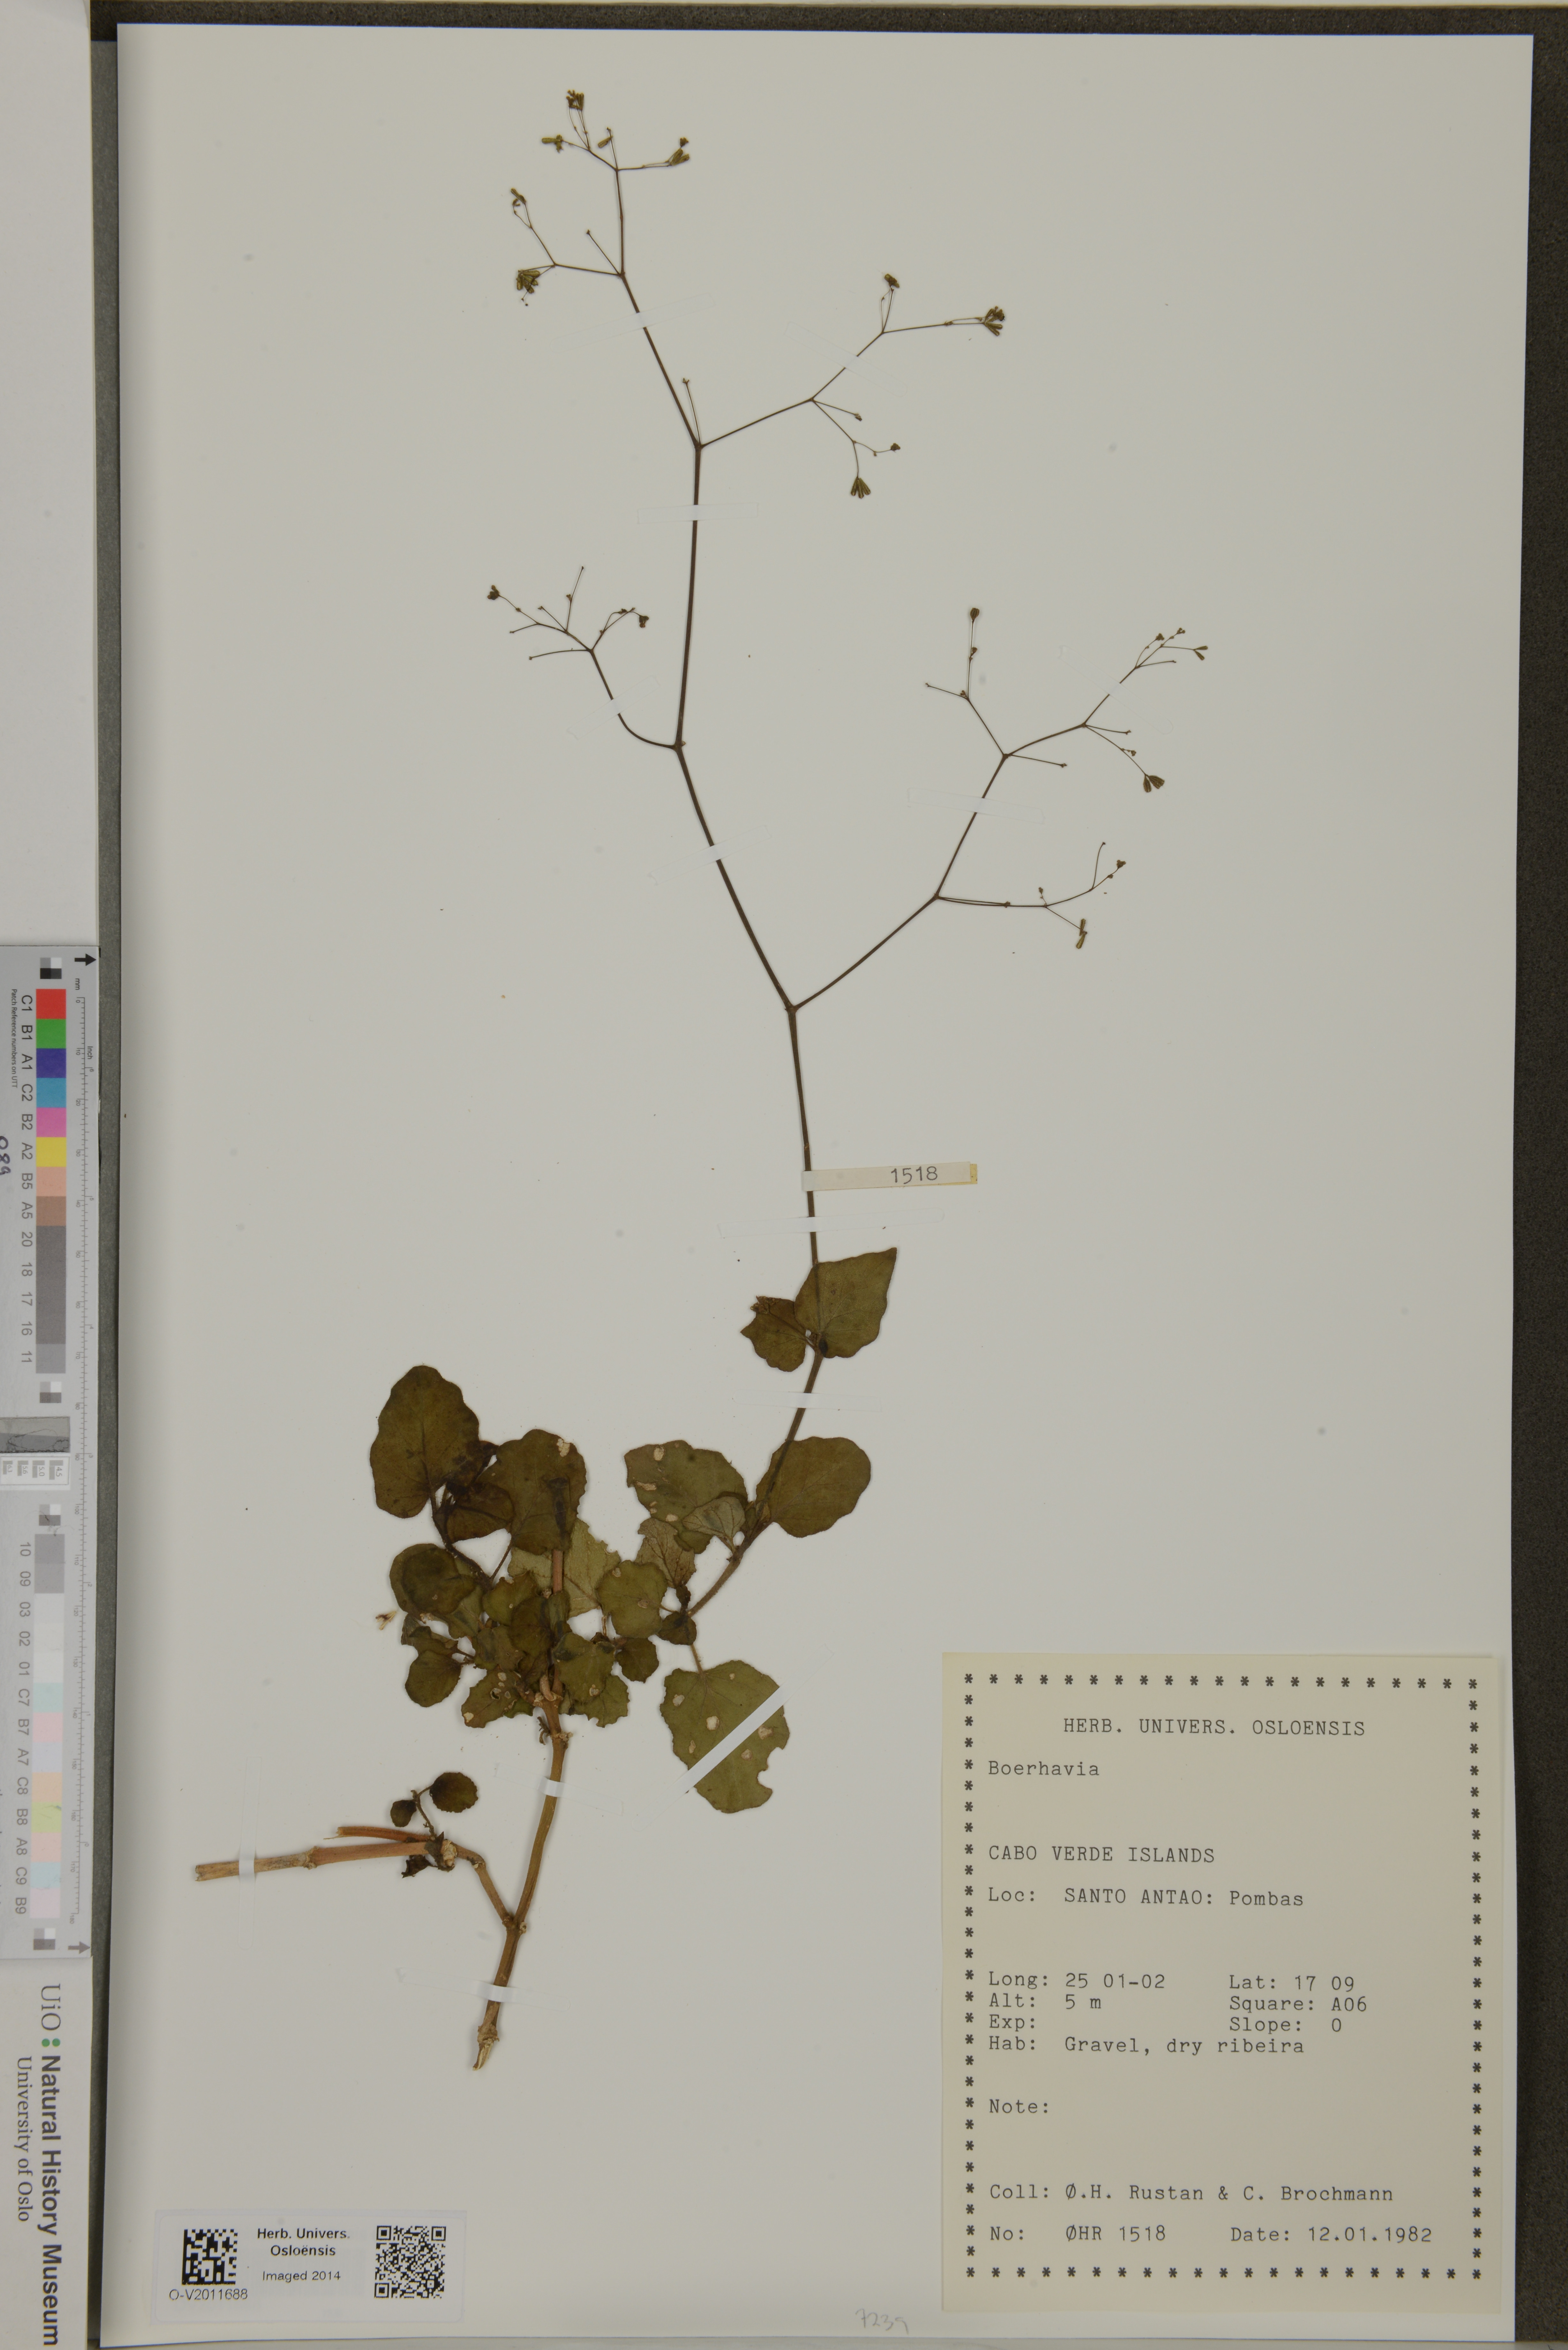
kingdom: Plantae
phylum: Tracheophyta
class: Magnoliopsida
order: Caryophyllales
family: Nyctaginaceae
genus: Boerhavia
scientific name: Boerhavia
